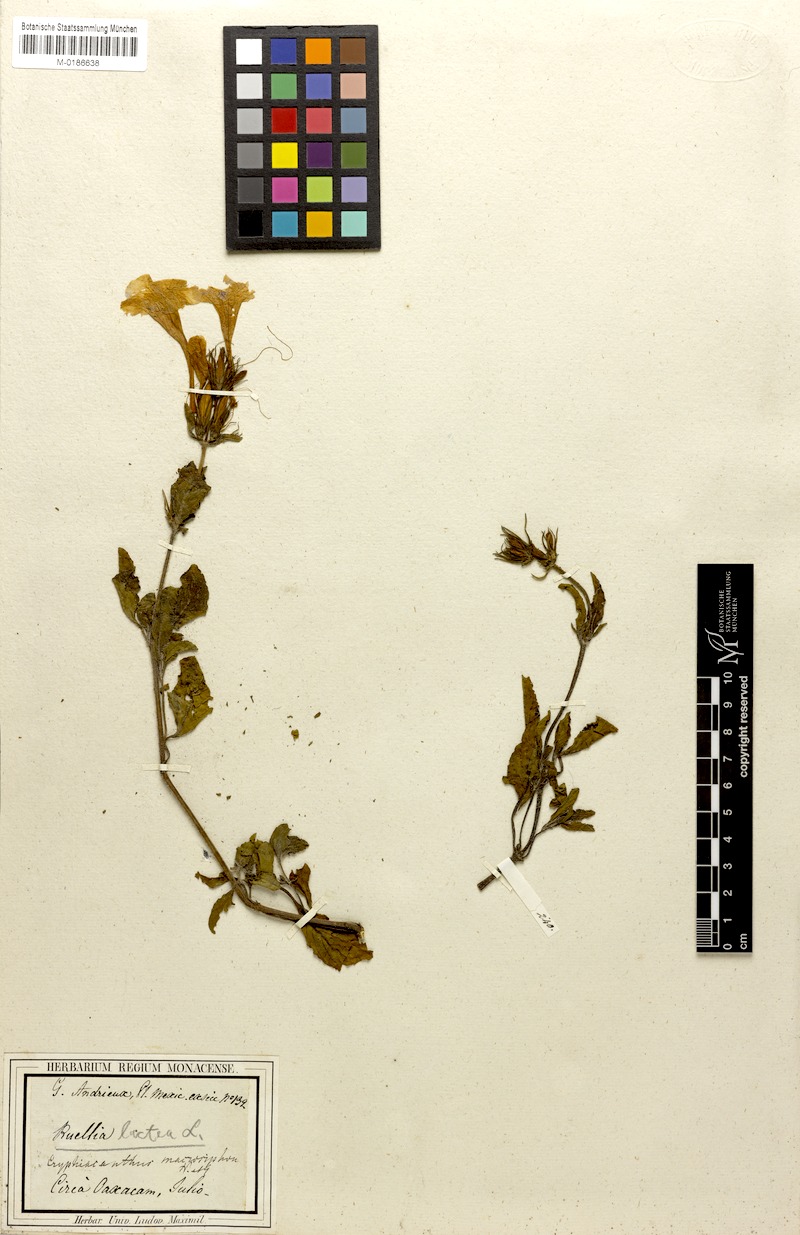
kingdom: Plantae
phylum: Tracheophyta
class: Magnoliopsida
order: Lamiales
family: Acanthaceae
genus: Ruellia
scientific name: Ruellia lactea
